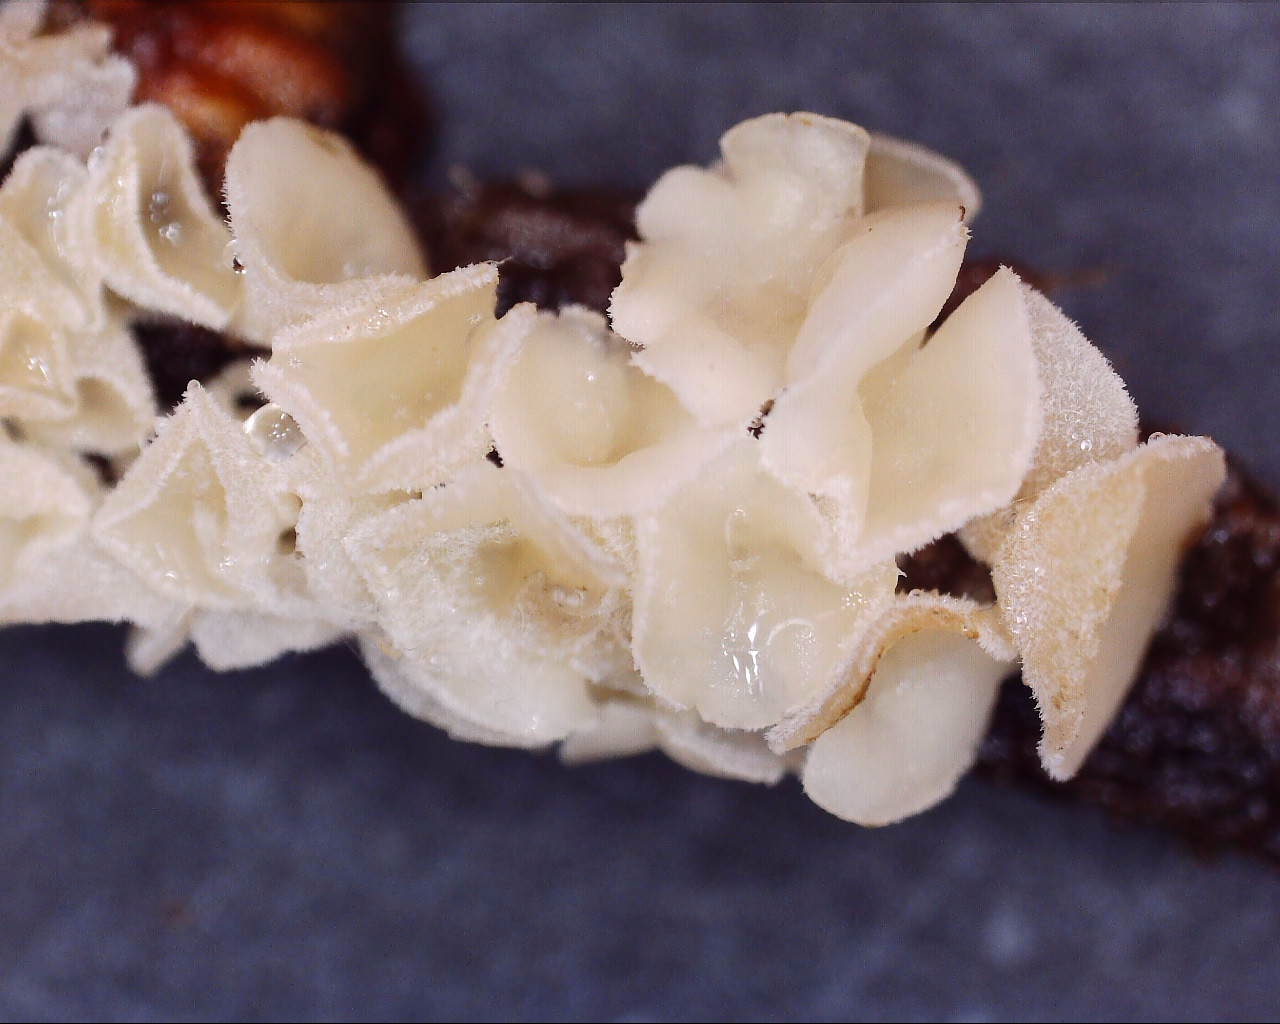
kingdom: Fungi
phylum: Ascomycota
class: Leotiomycetes
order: Helotiales
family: Lachnaceae
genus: Lachnum
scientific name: Lachnum
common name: frynseskive
